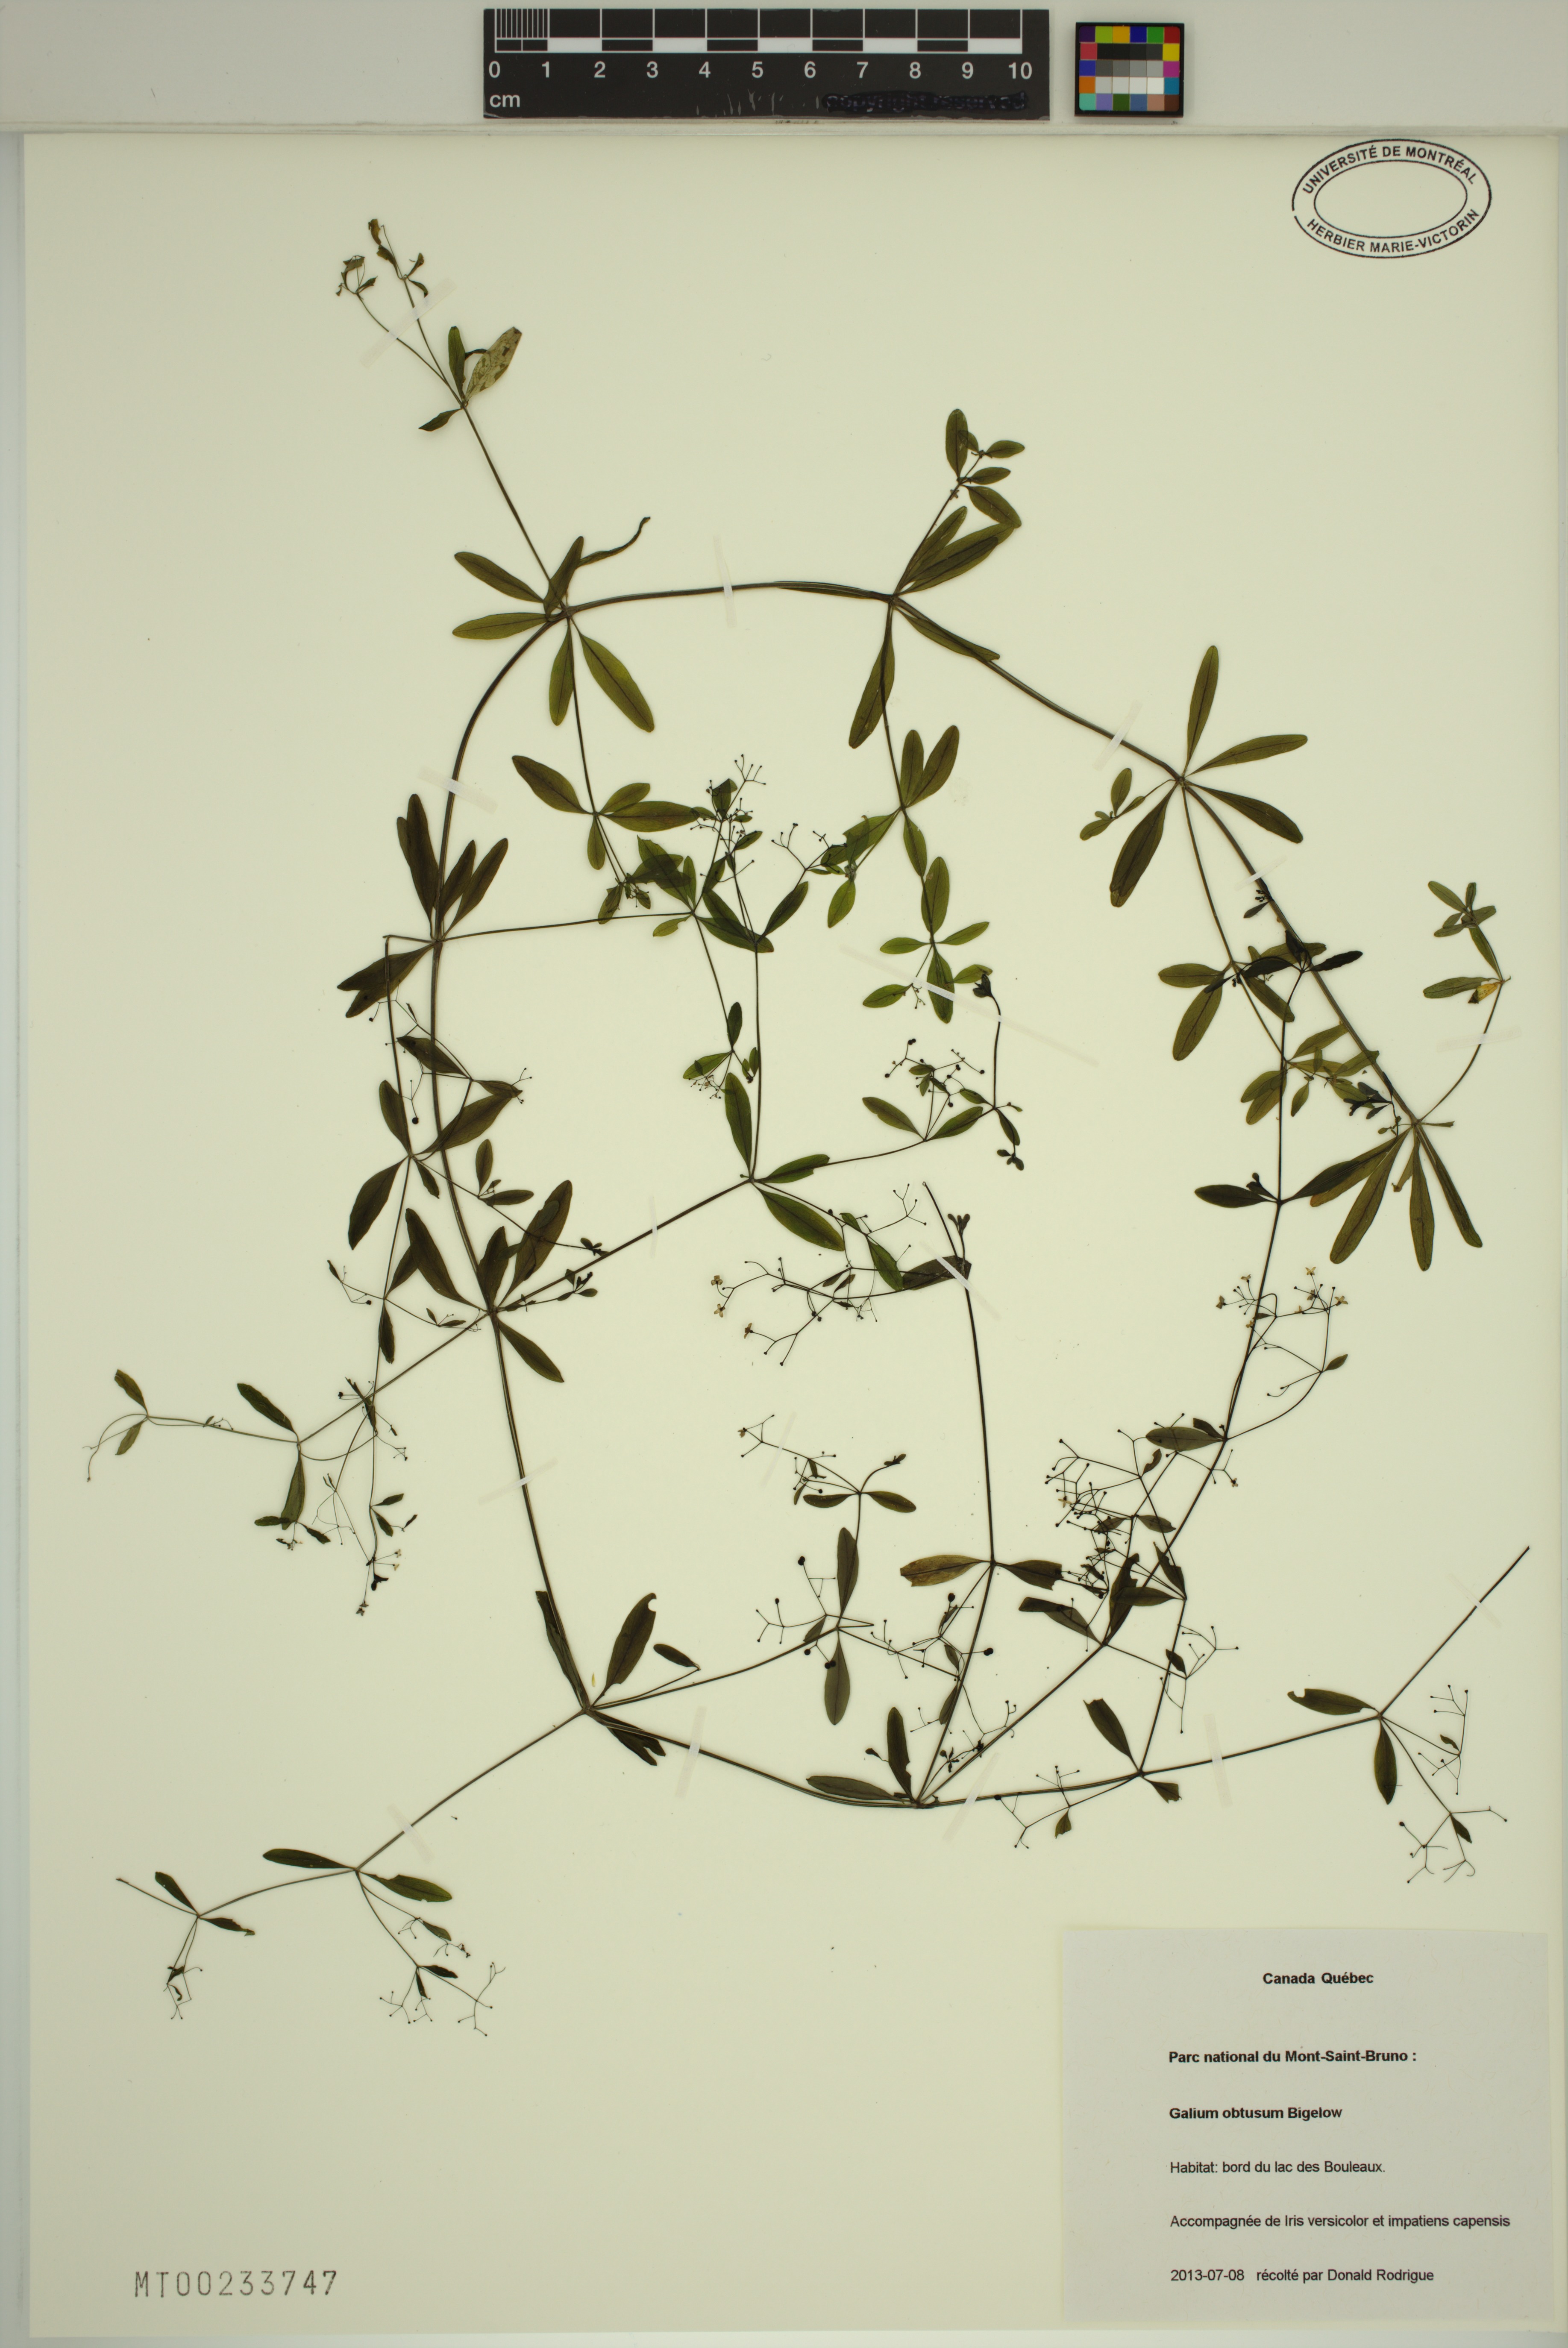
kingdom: Plantae
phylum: Tracheophyta
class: Magnoliopsida
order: Gentianales
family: Rubiaceae
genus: Galium
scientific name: Galium obtusum
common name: Blunt-leaved bedstraw
